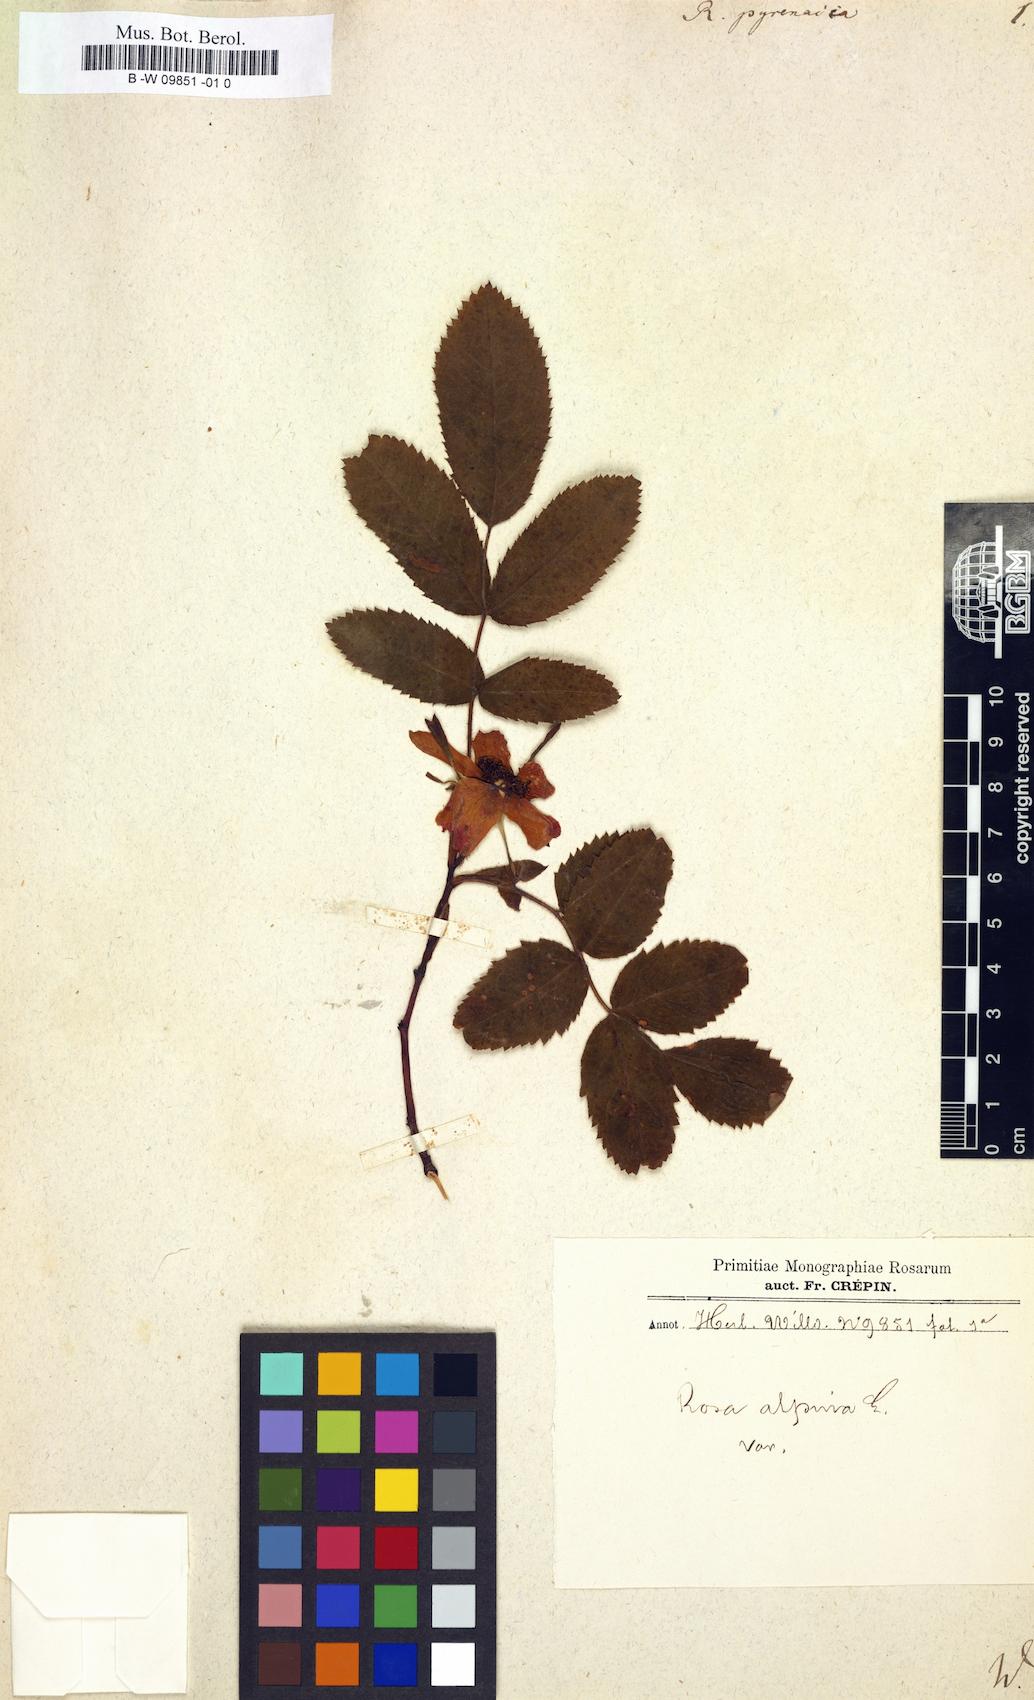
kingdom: Plantae
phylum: Tracheophyta
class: Magnoliopsida
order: Rosales
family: Rosaceae
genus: Rosa
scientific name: Rosa pendulina
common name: Alpine rose
